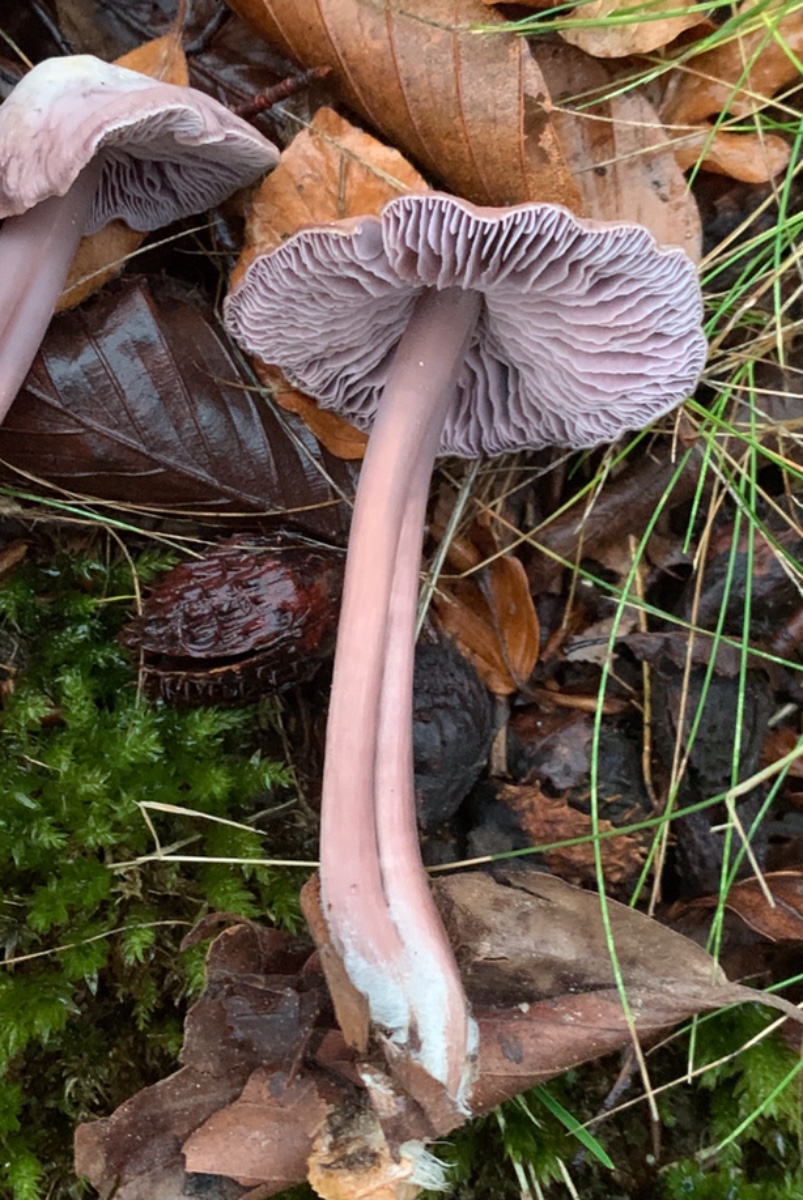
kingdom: Fungi
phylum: Basidiomycota
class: Agaricomycetes
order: Agaricales
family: Mycenaceae
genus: Prunulus
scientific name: Prunulus diosmus
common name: tobaks-huesvamp
